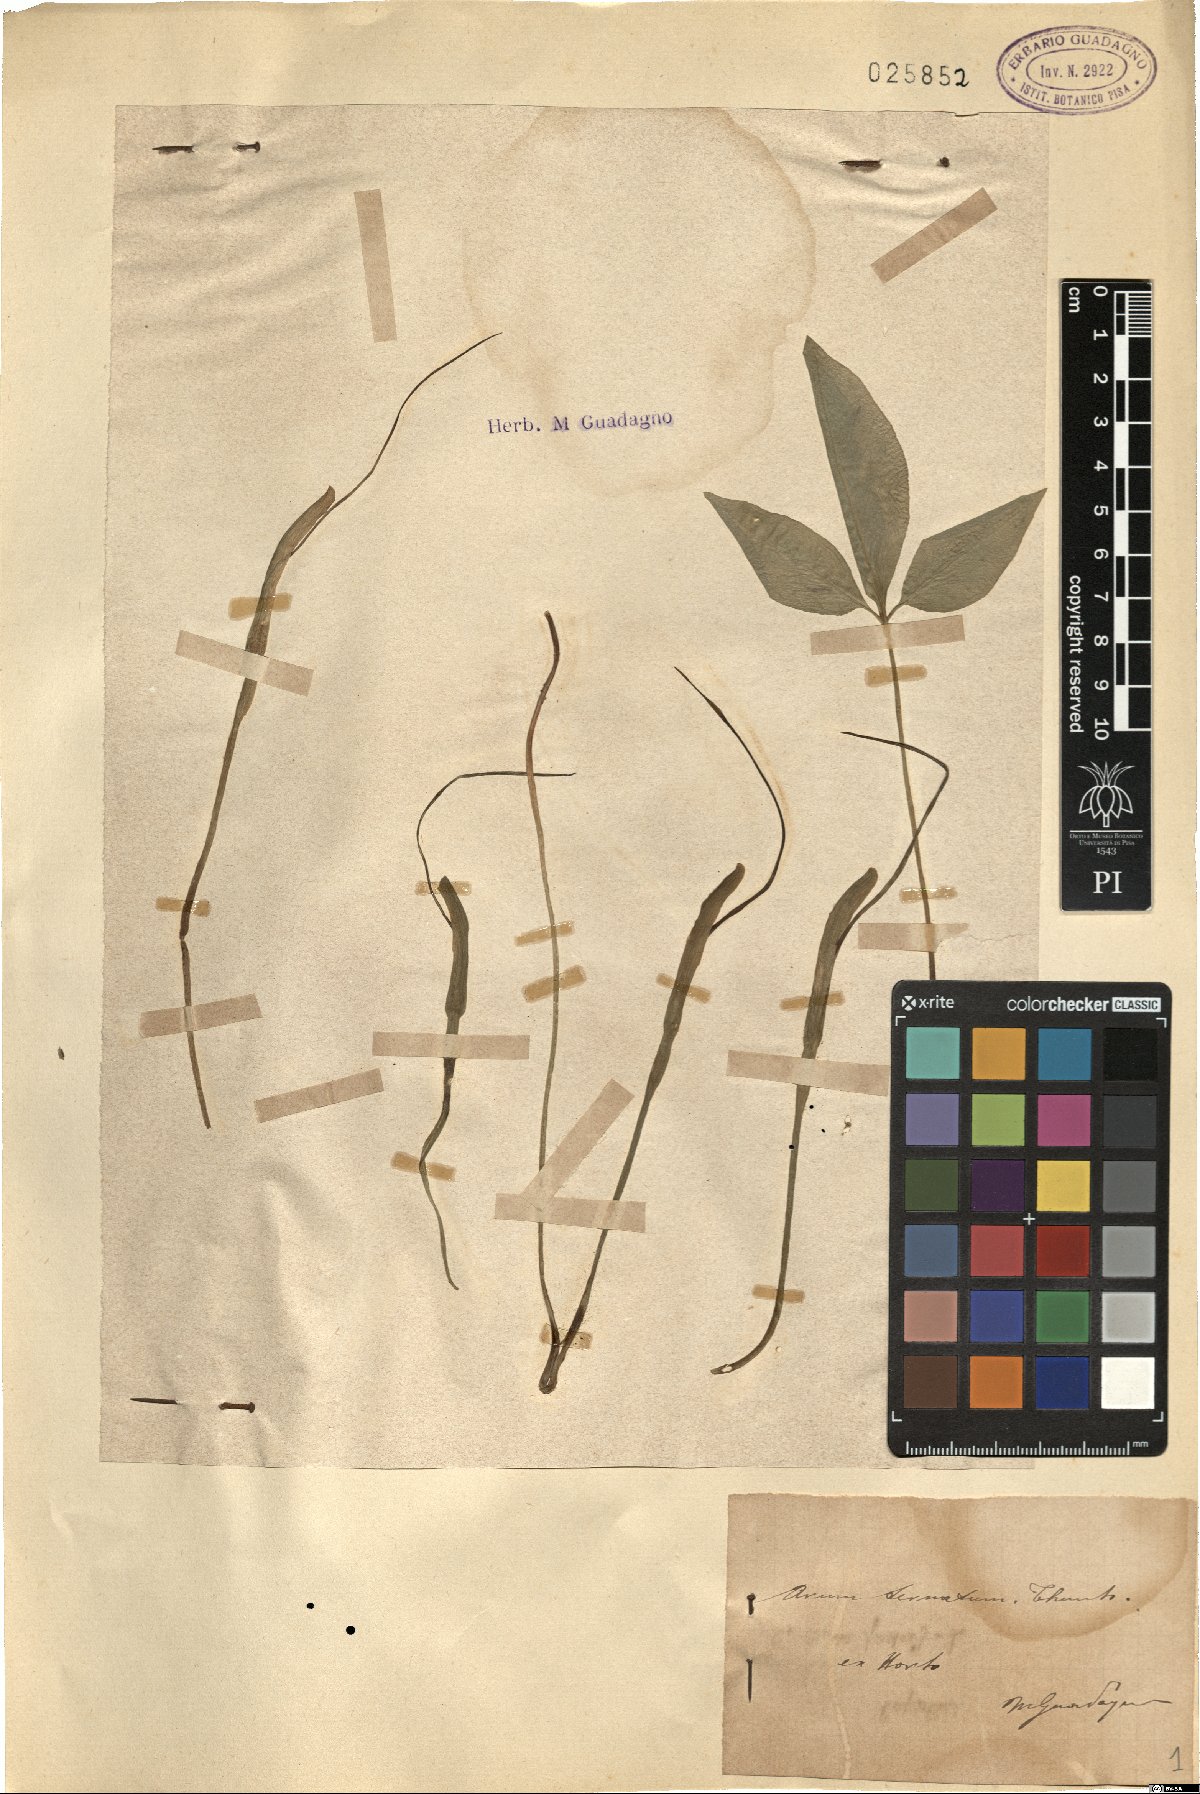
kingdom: Plantae
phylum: Tracheophyta
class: Liliopsida
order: Alismatales
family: Araceae
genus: Pinellia
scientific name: Pinellia ternata
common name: Pinellia
